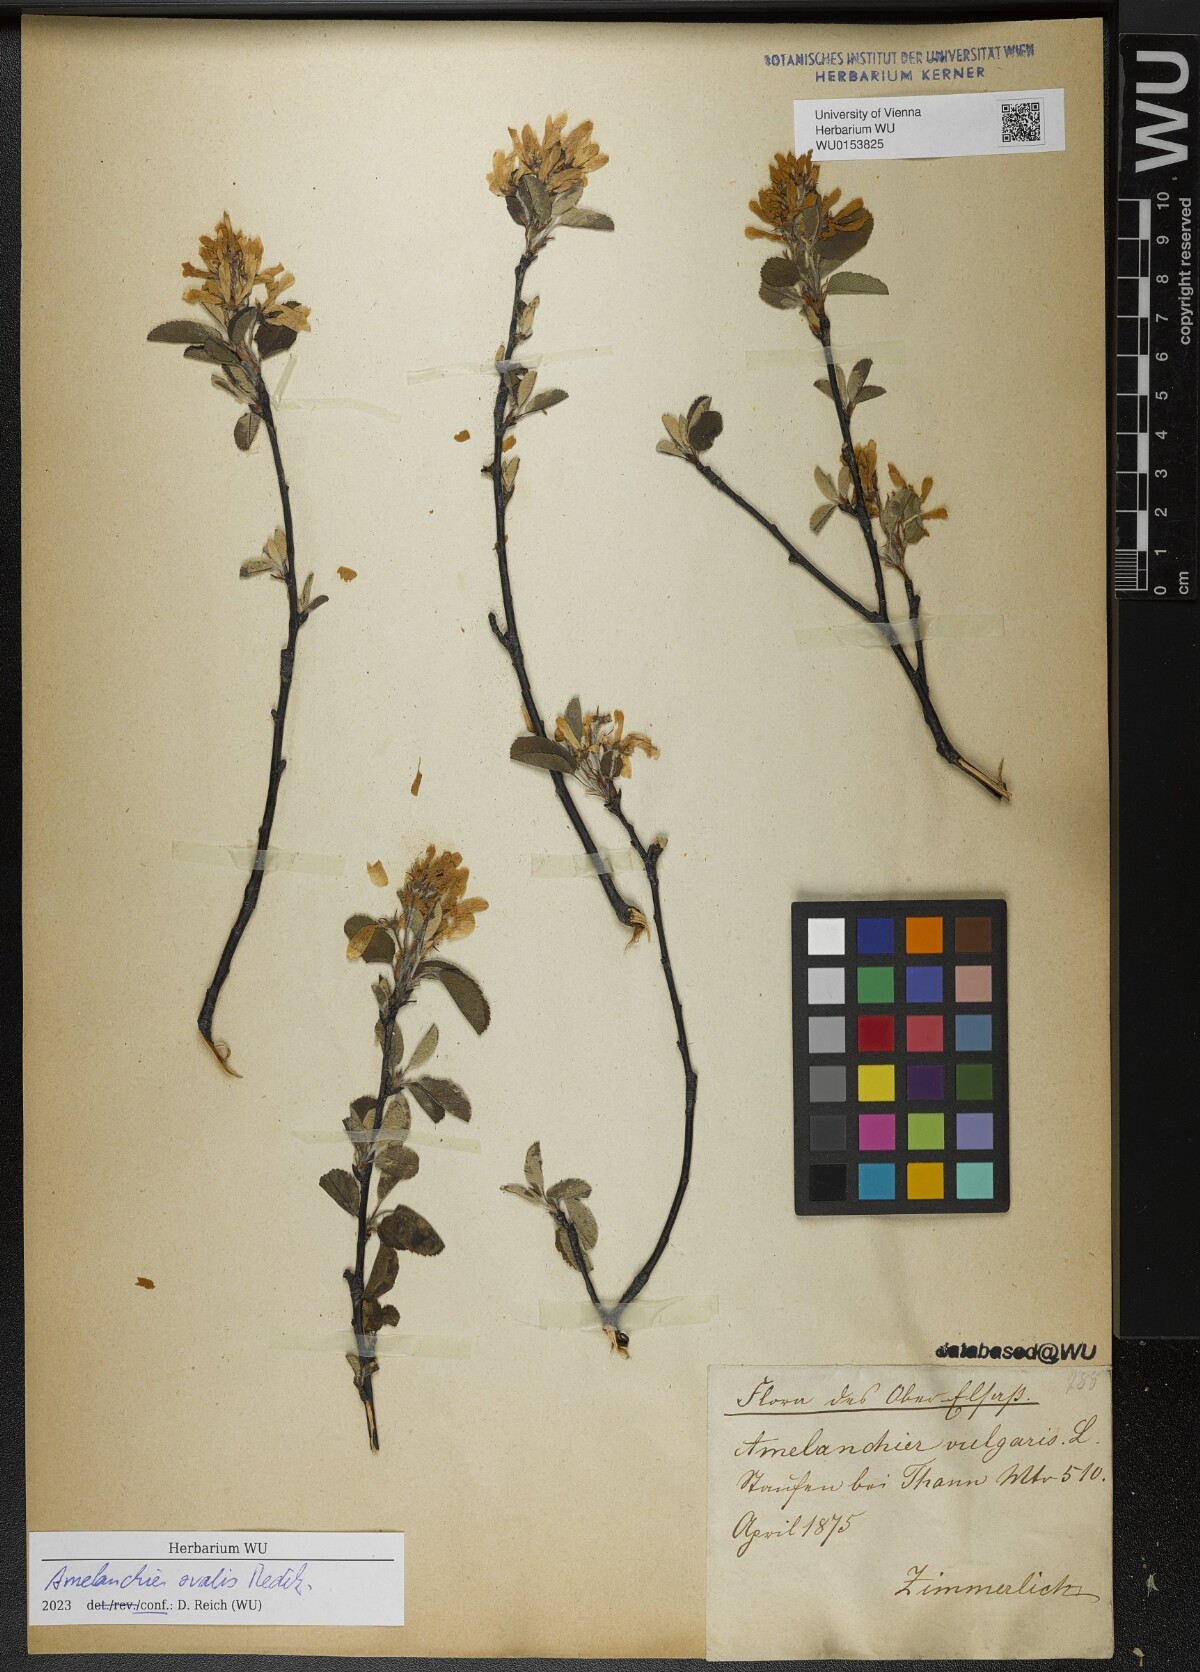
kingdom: Plantae
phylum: Tracheophyta
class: Magnoliopsida
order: Rosales
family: Rosaceae
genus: Amelanchier
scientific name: Amelanchier ovalis
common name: Serviceberry
